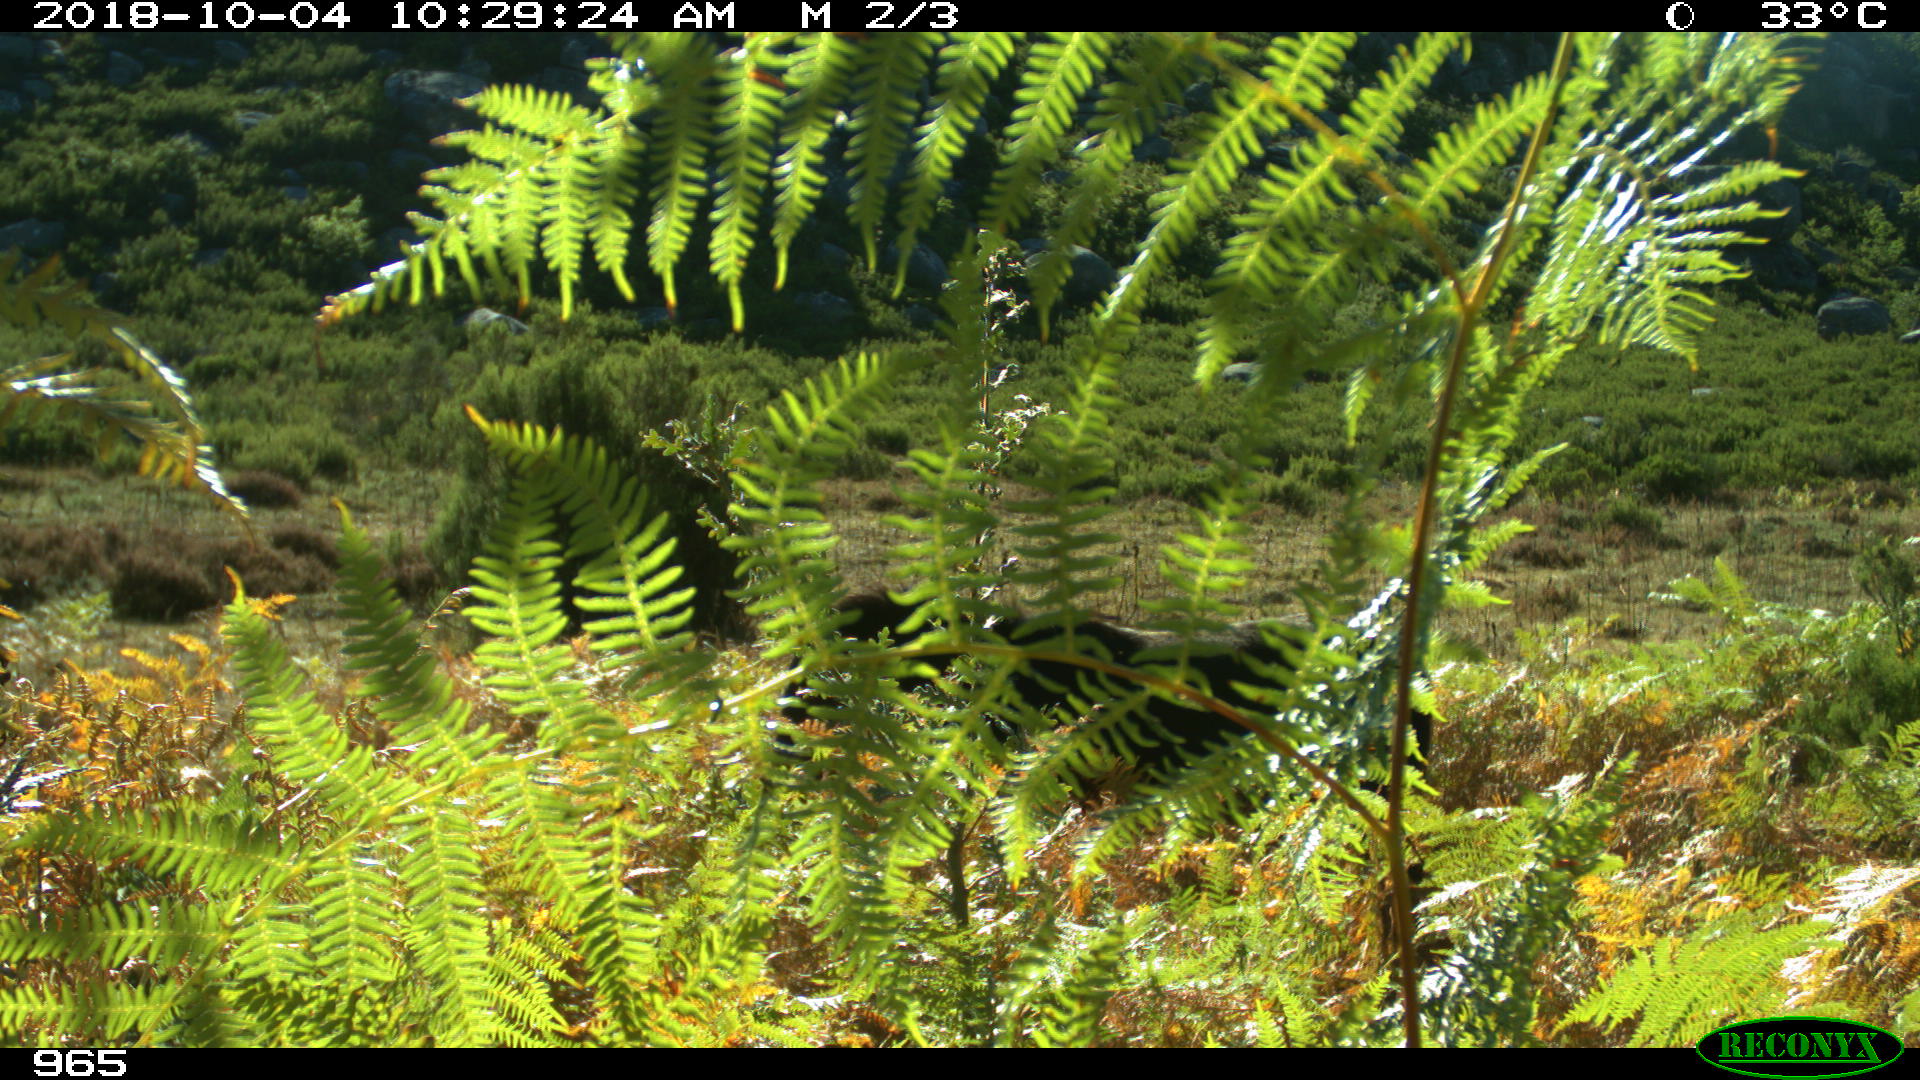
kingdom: Animalia
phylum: Chordata
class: Mammalia
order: Perissodactyla
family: Equidae
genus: Equus
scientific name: Equus caballus
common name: Horse
